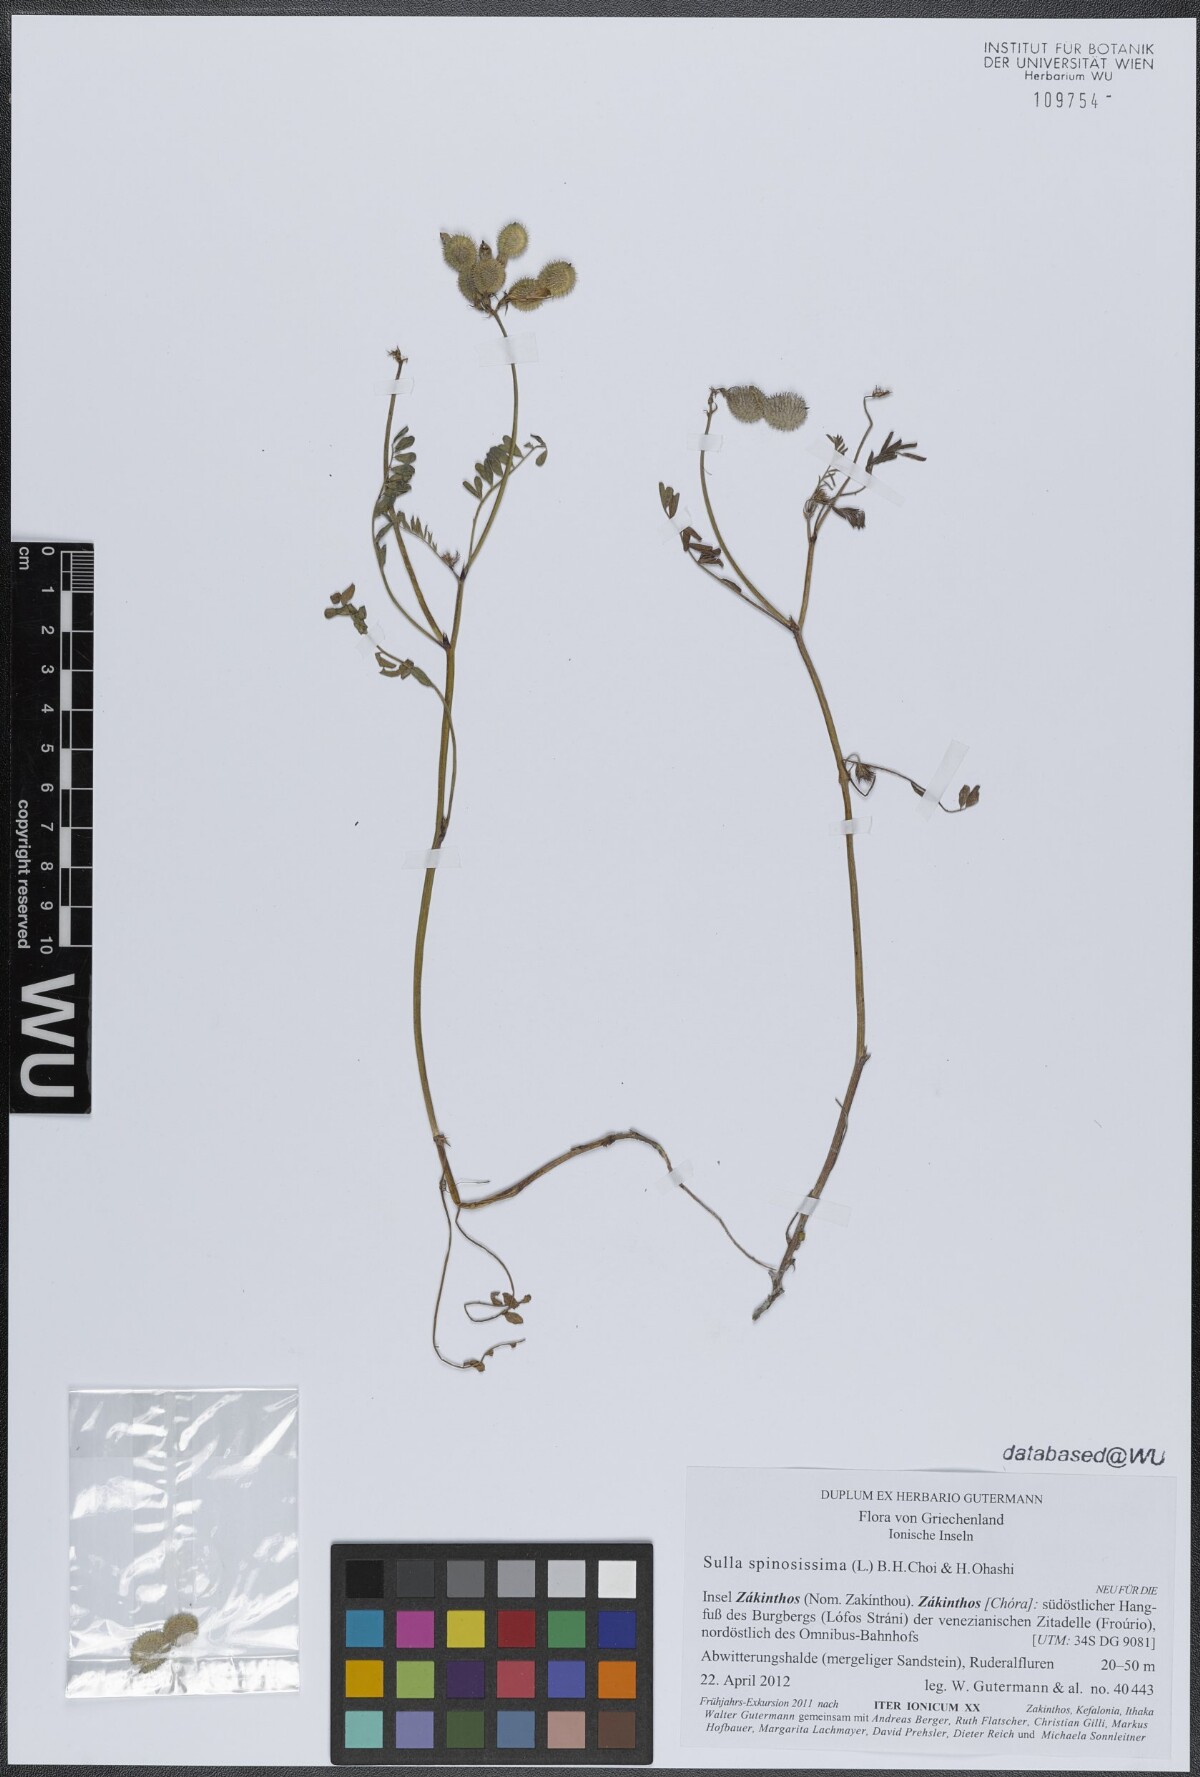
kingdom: Plantae
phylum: Tracheophyta
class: Magnoliopsida
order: Fabales
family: Fabaceae
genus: Sulla
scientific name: Sulla glomerata
